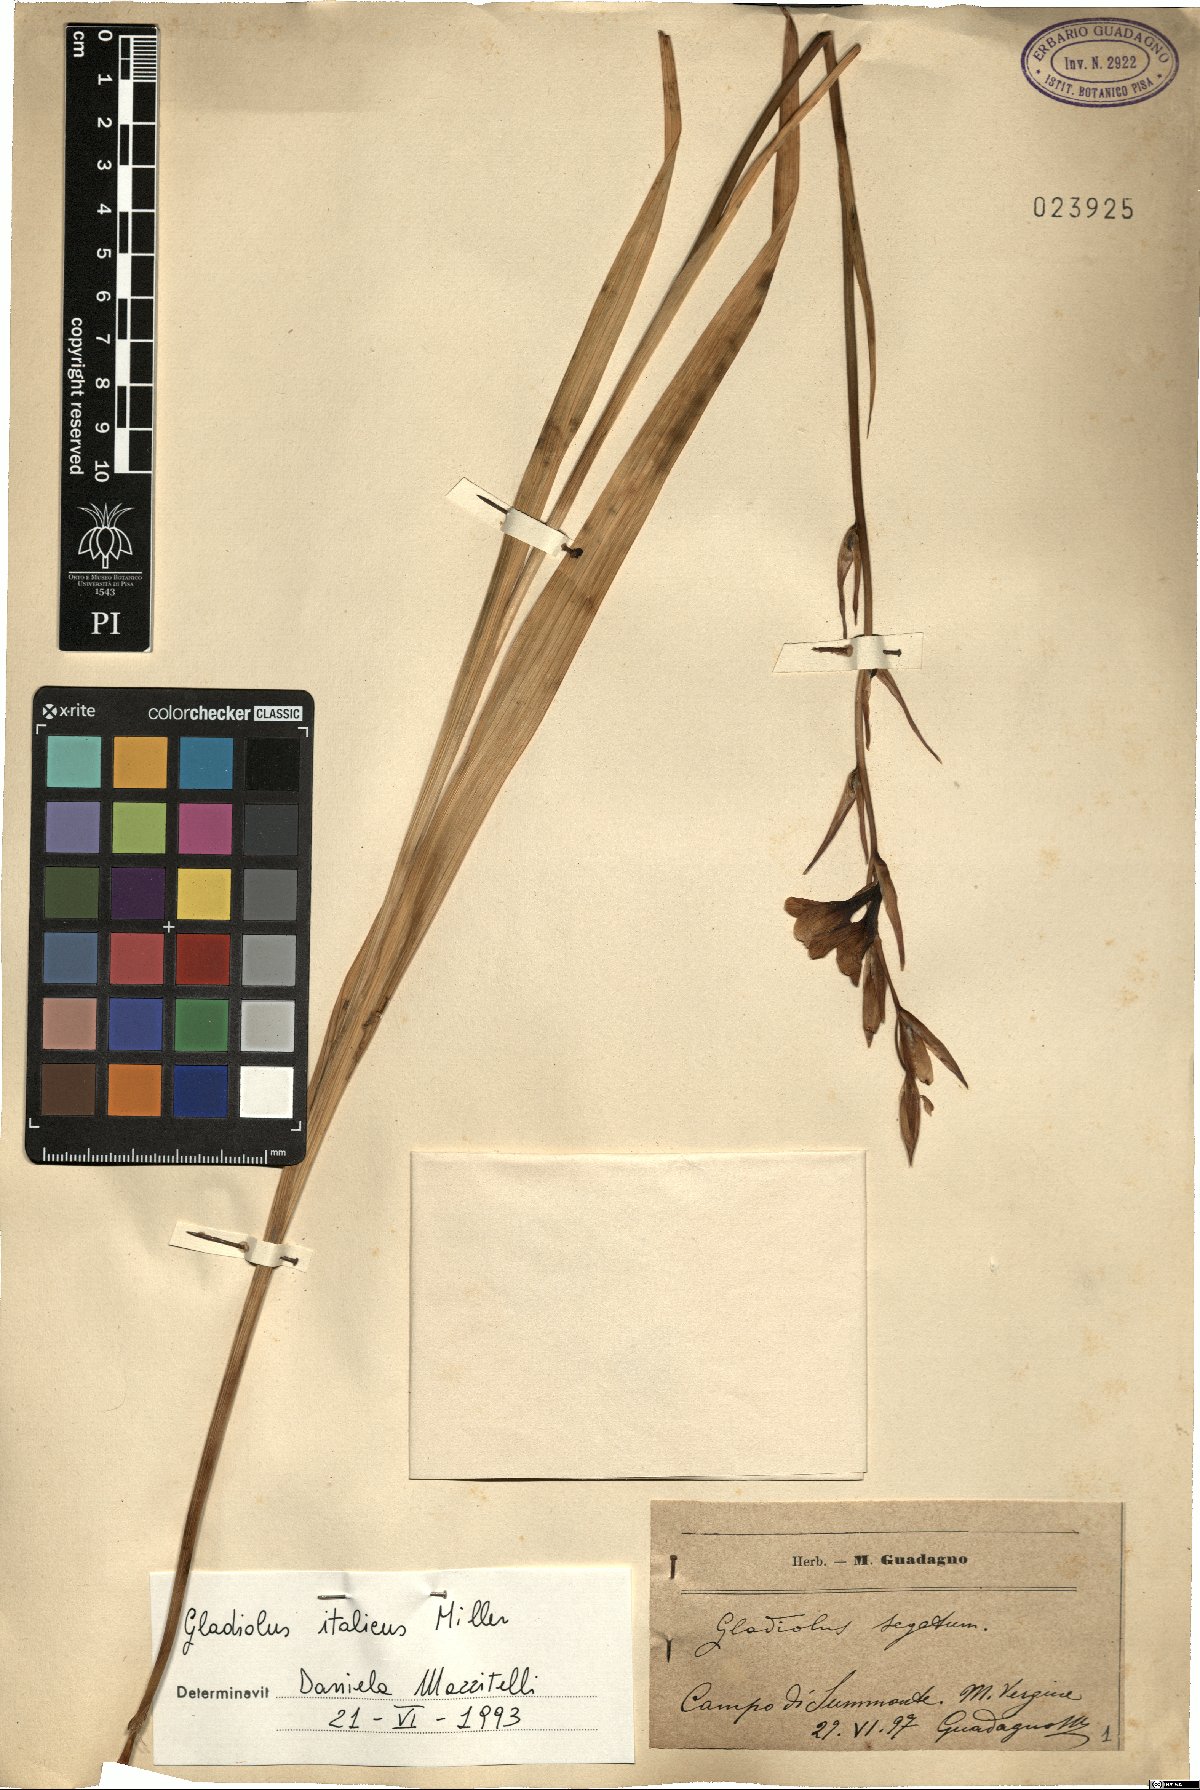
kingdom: Plantae
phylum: Tracheophyta
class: Liliopsida
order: Asparagales
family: Iridaceae
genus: Gladiolus
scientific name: Gladiolus italicus
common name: Field gladiolus
